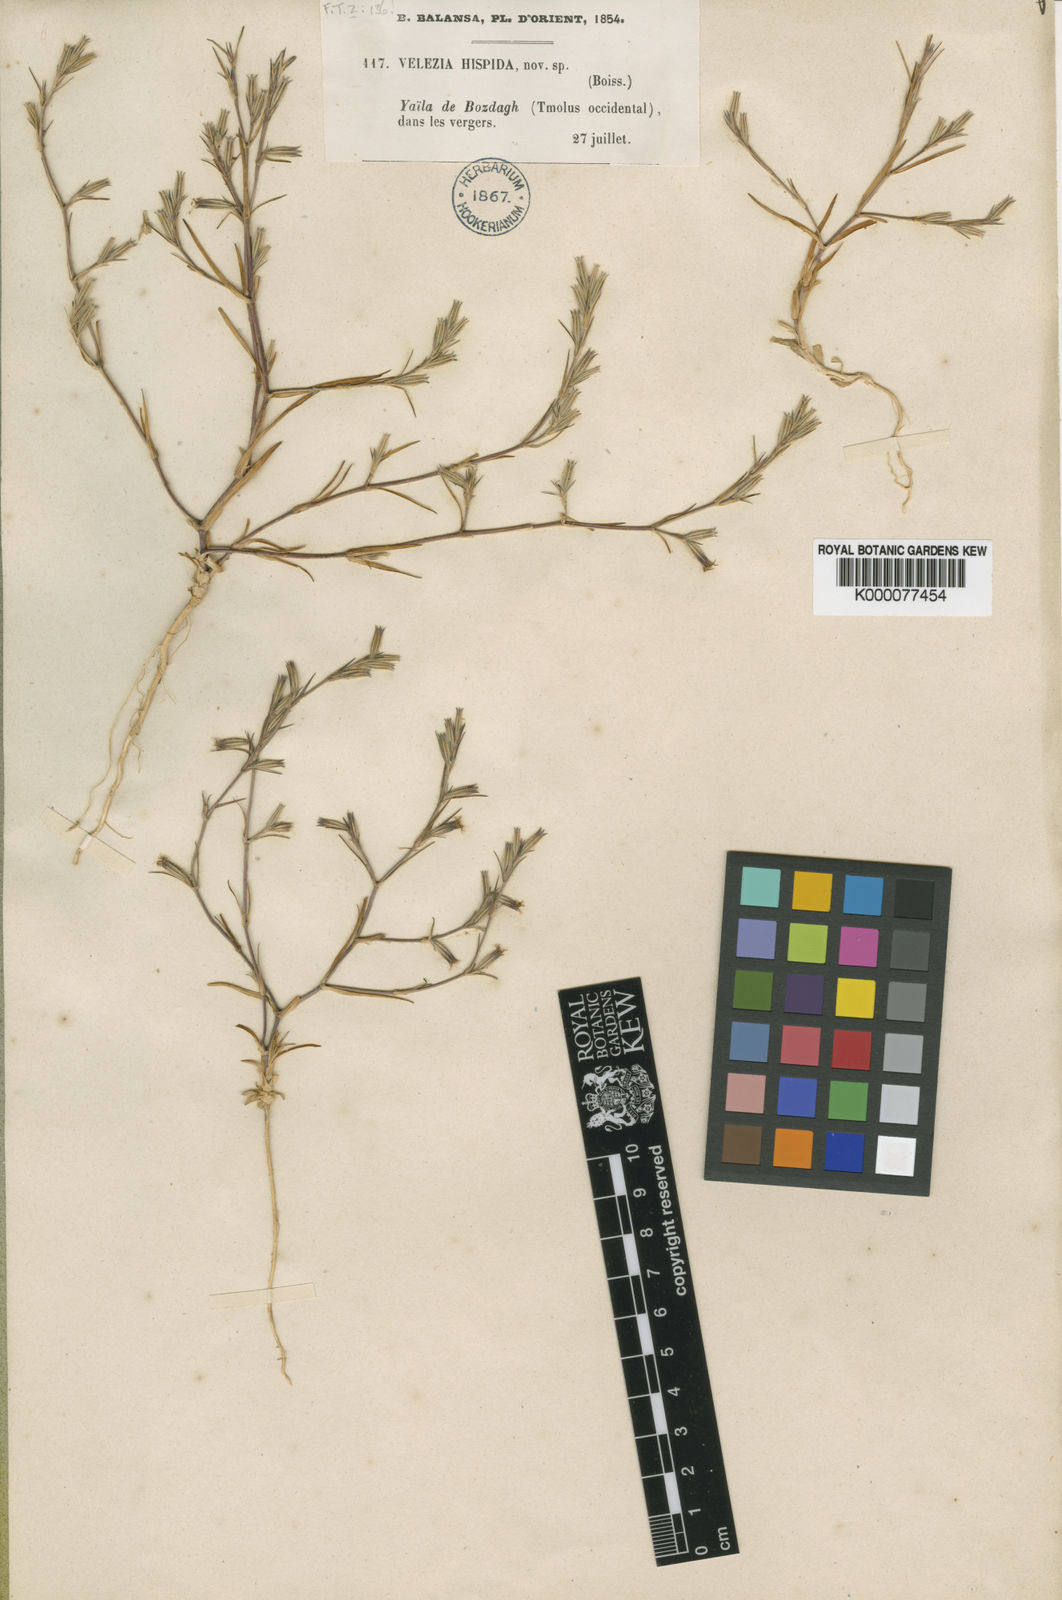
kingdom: Plantae
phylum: Tracheophyta
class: Magnoliopsida
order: Caryophyllales
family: Caryophyllaceae
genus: Dianthus
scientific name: Dianthus hispidus
